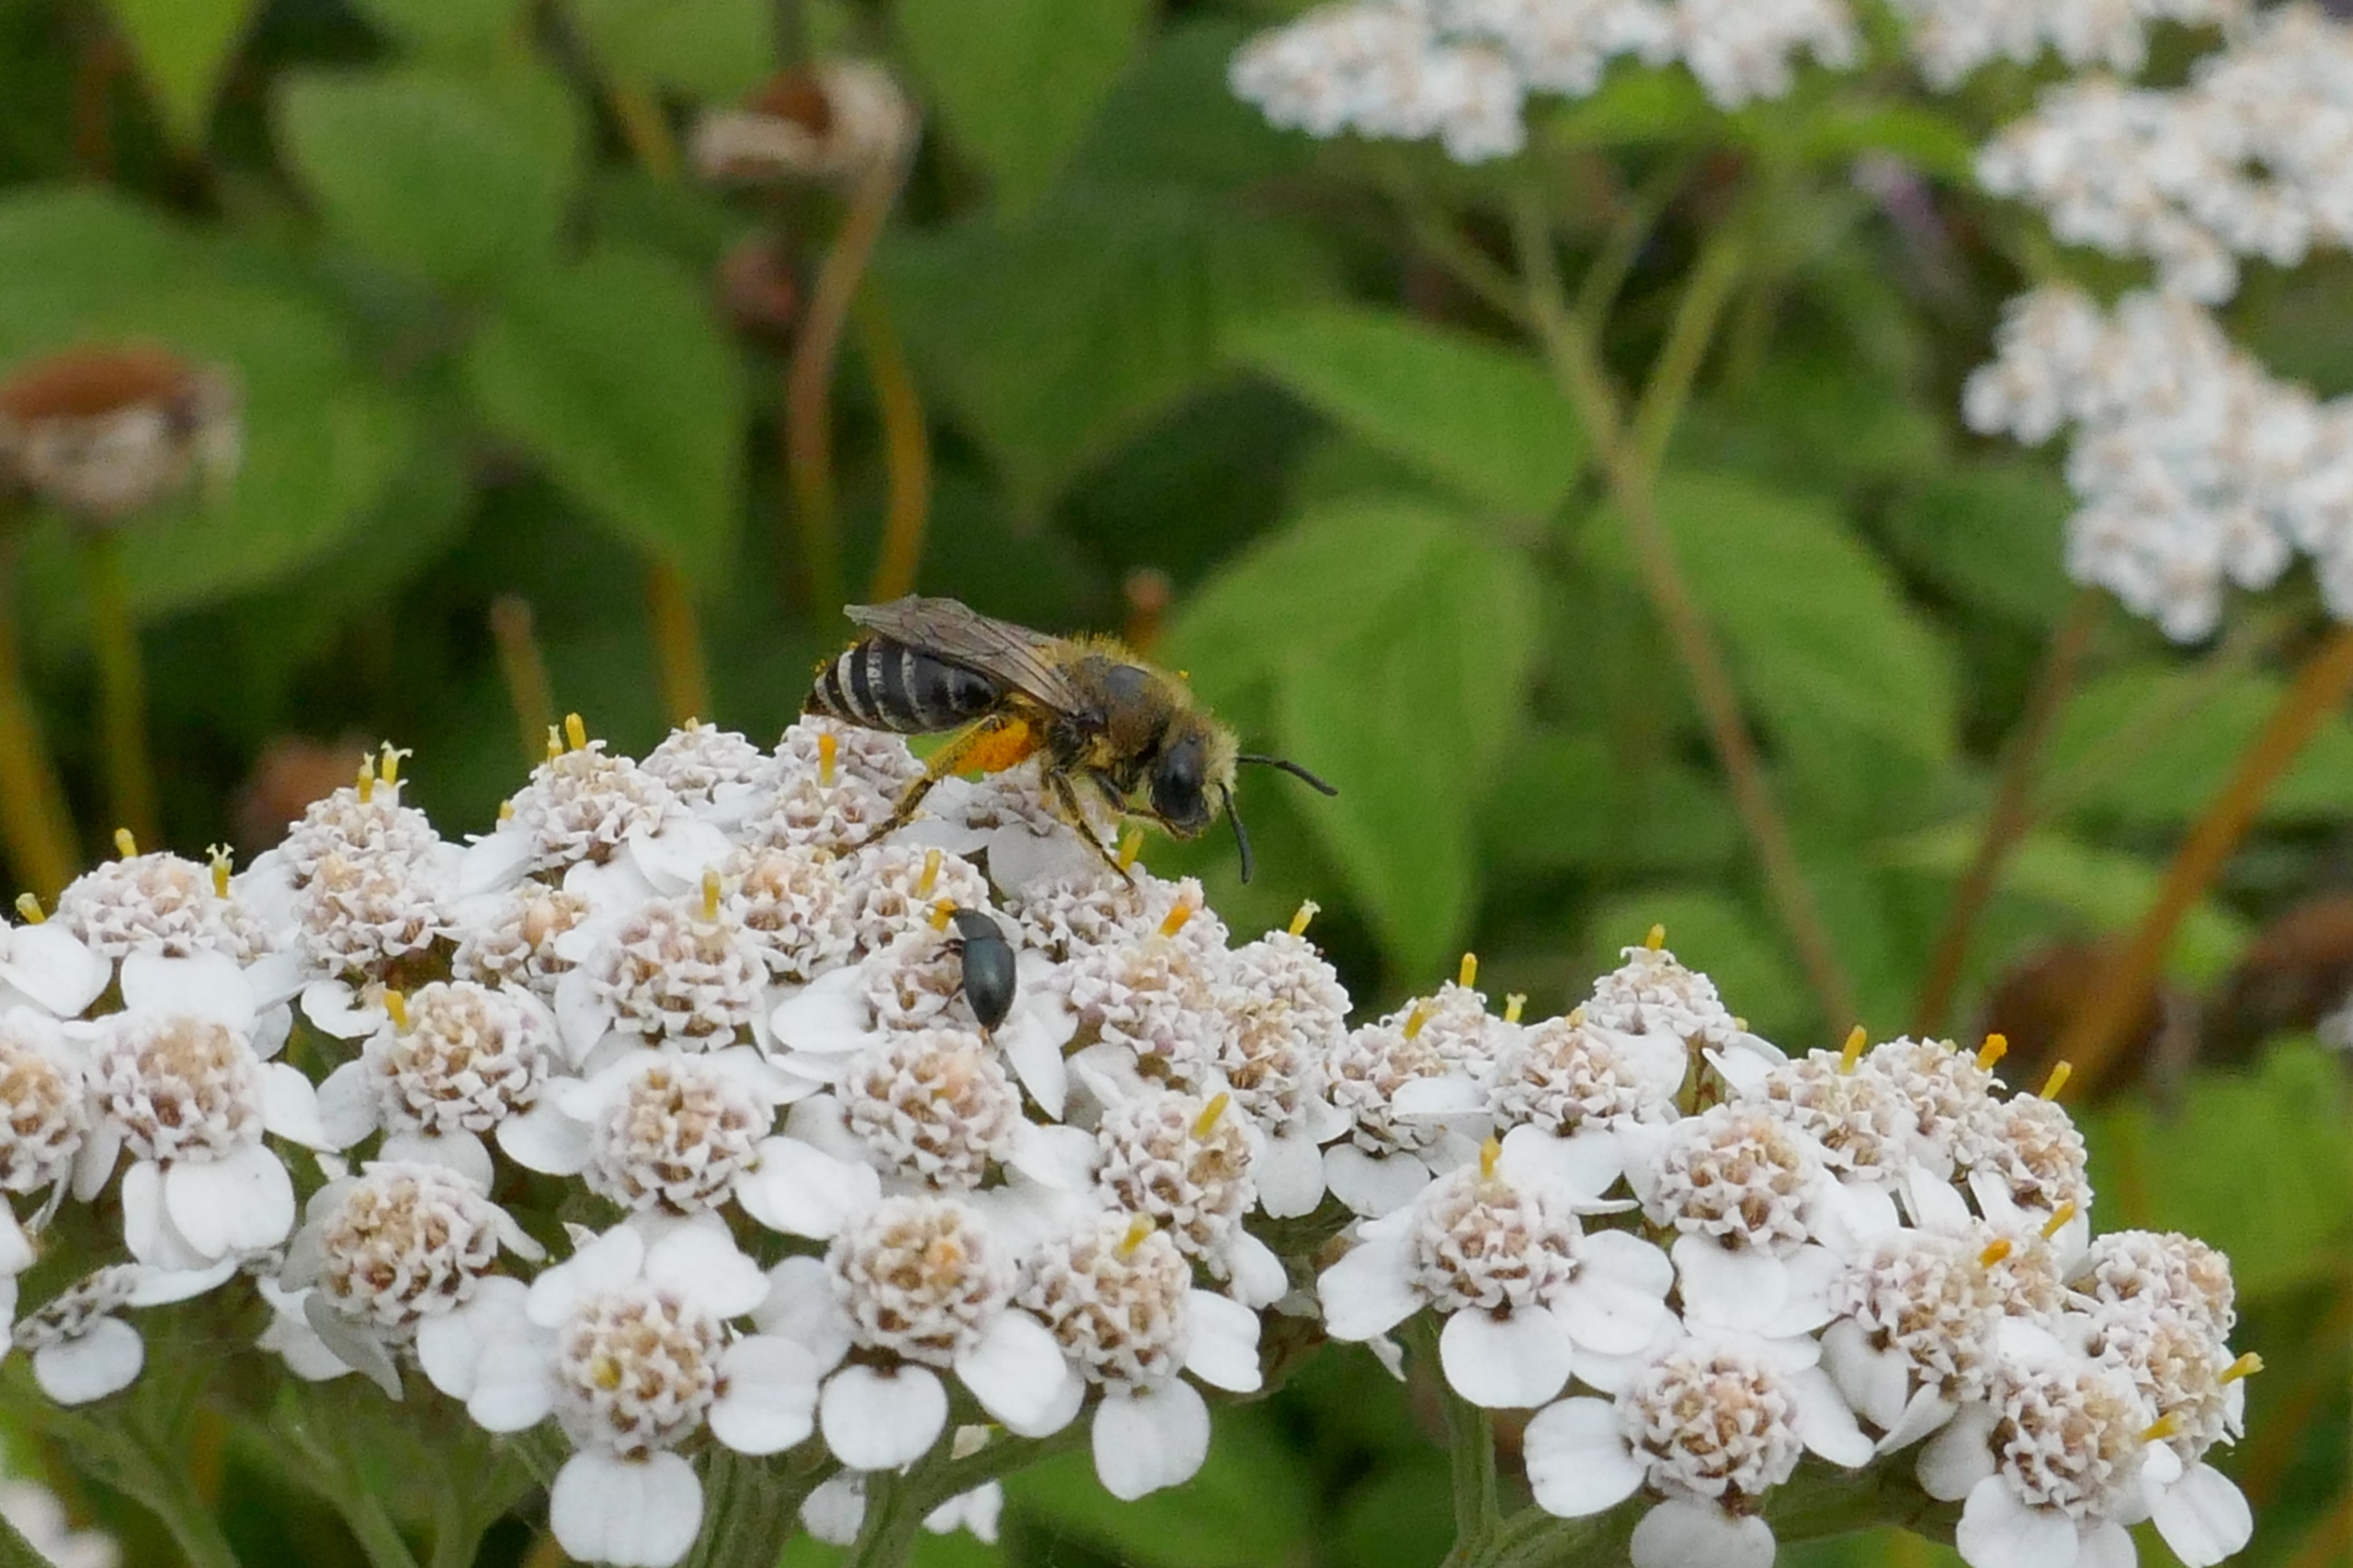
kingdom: Animalia
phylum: Arthropoda
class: Insecta
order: Hymenoptera
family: Colletidae
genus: Colletes
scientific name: Colletes daviesanus
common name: Vægsilkebi
